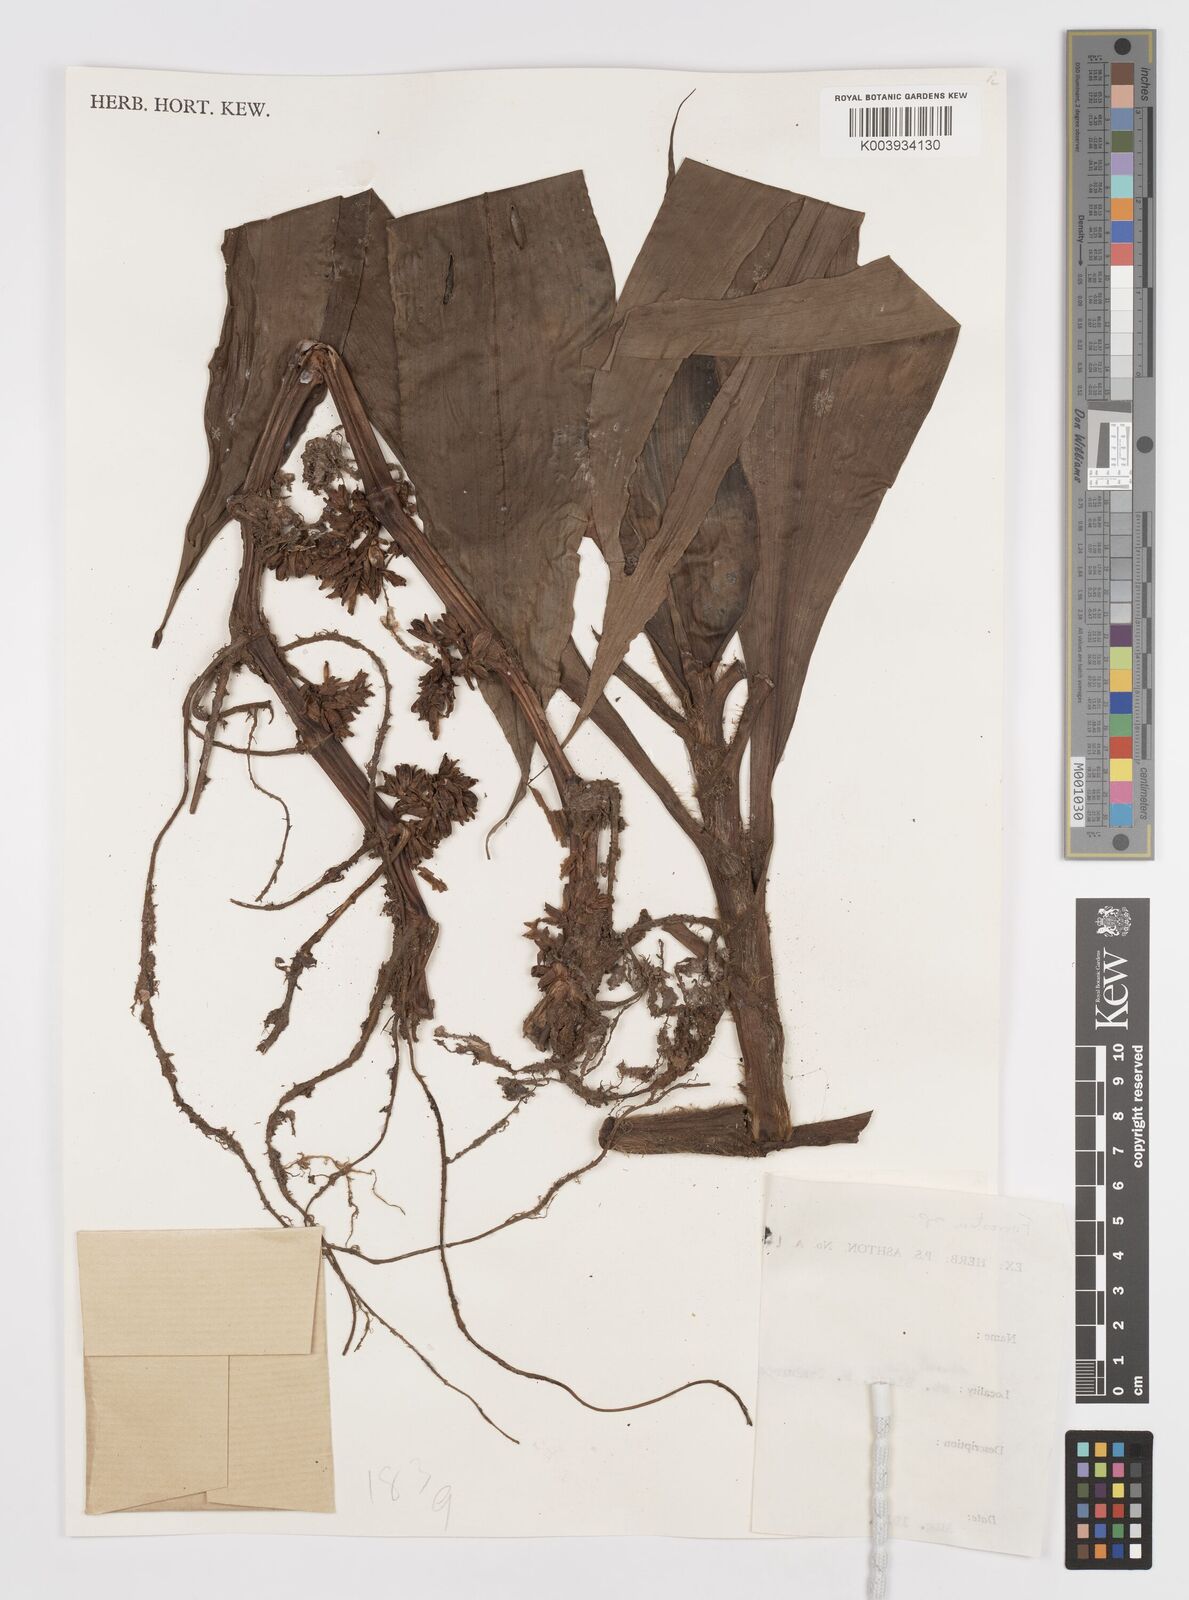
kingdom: Plantae
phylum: Tracheophyta
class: Liliopsida
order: Commelinales
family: Commelinaceae
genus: Amischotolype
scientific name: Amischotolype
